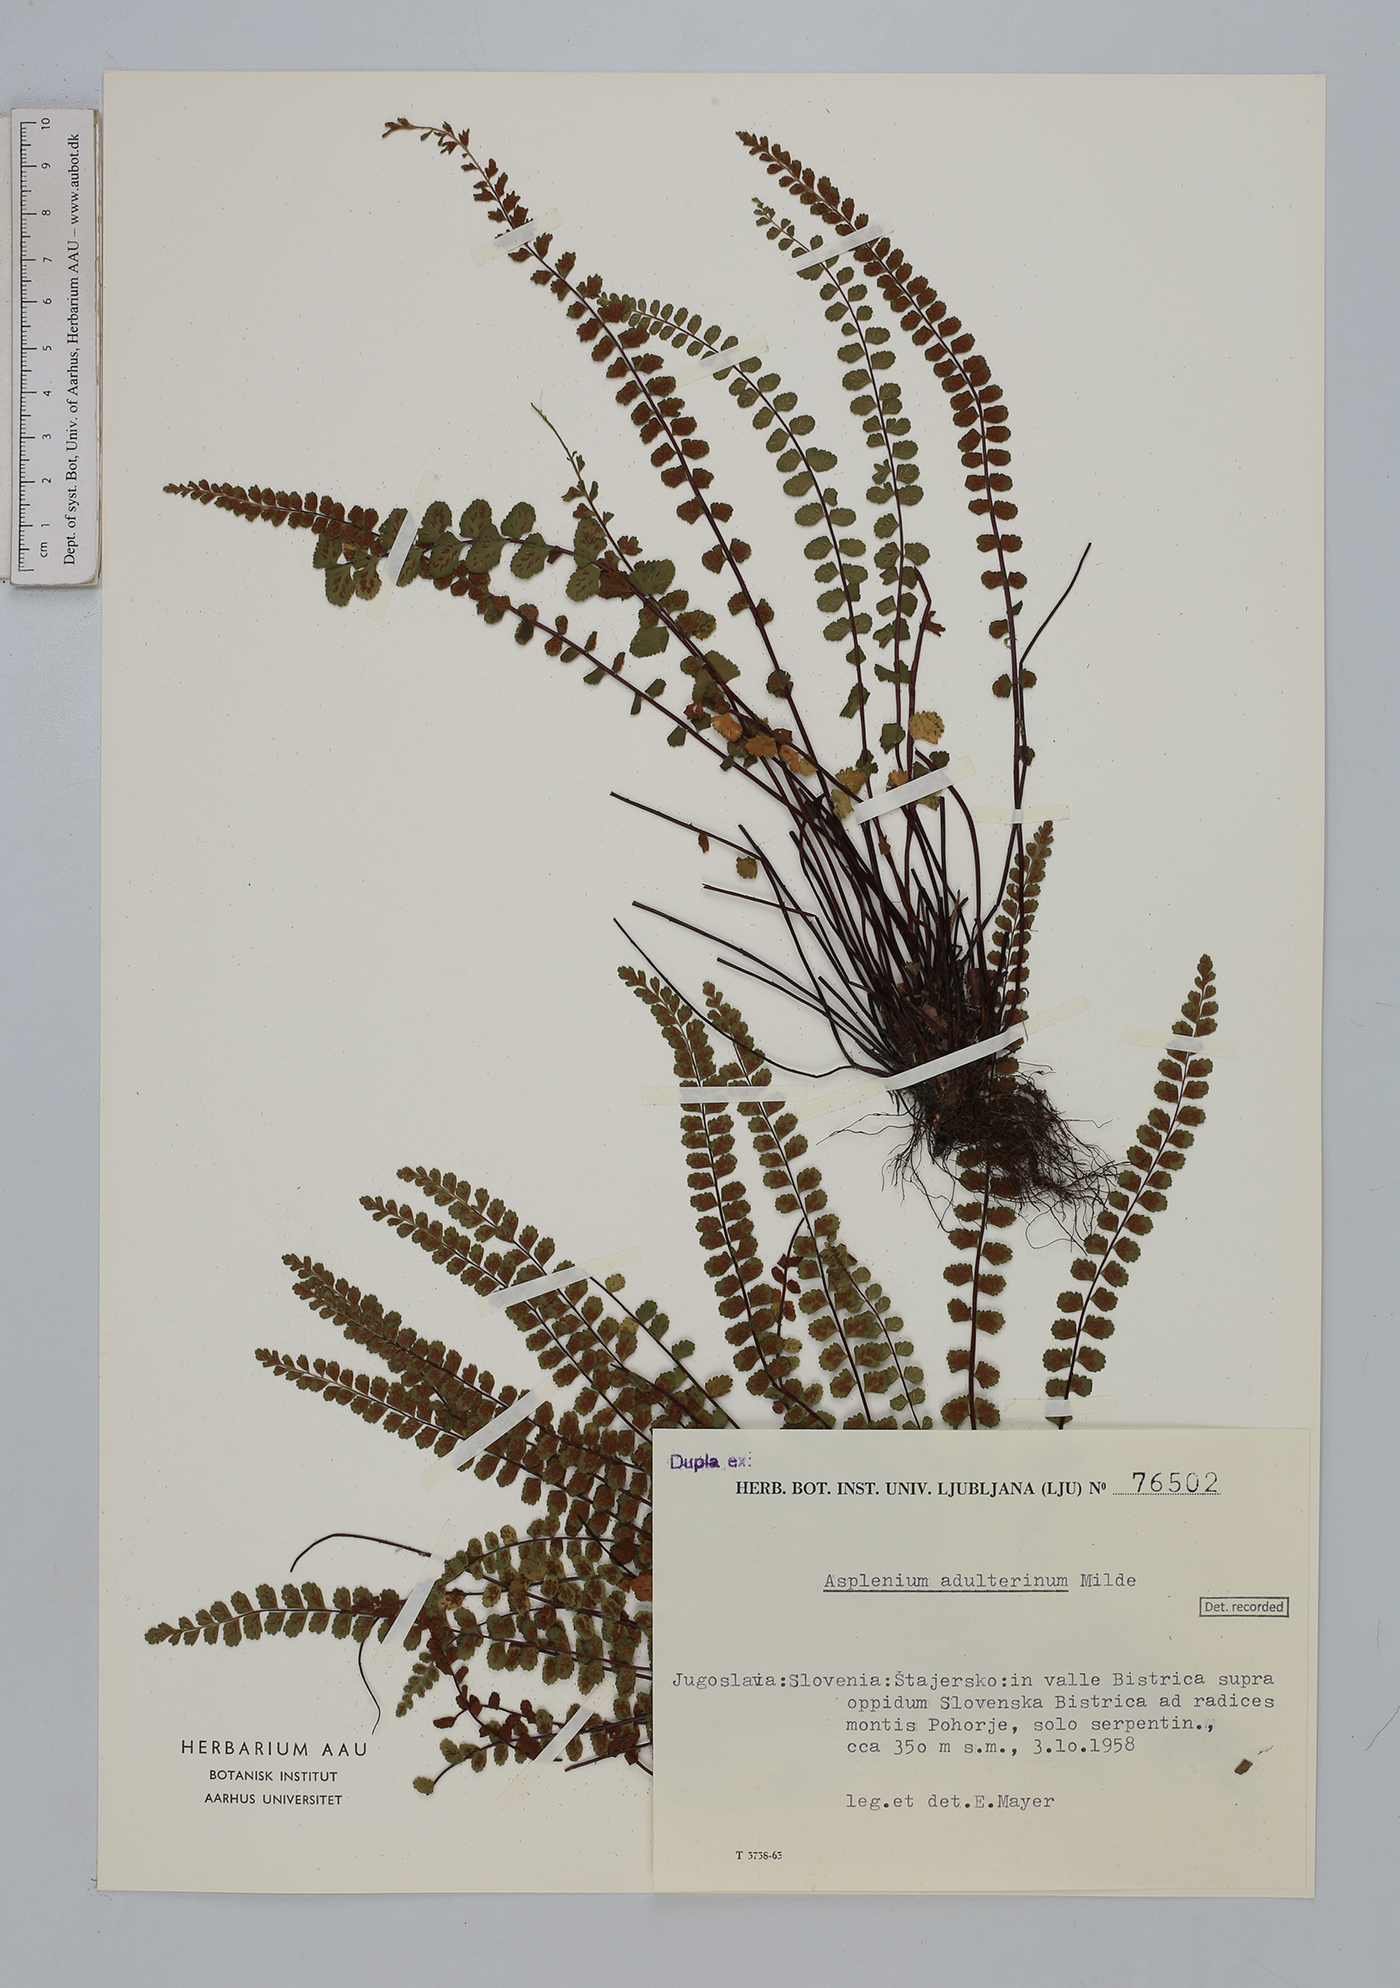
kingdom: Plantae
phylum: Tracheophyta
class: Polypodiopsida
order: Polypodiales
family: Aspleniaceae
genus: Asplenium
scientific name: Asplenium adulterinum
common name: Adulterated spleenwort
